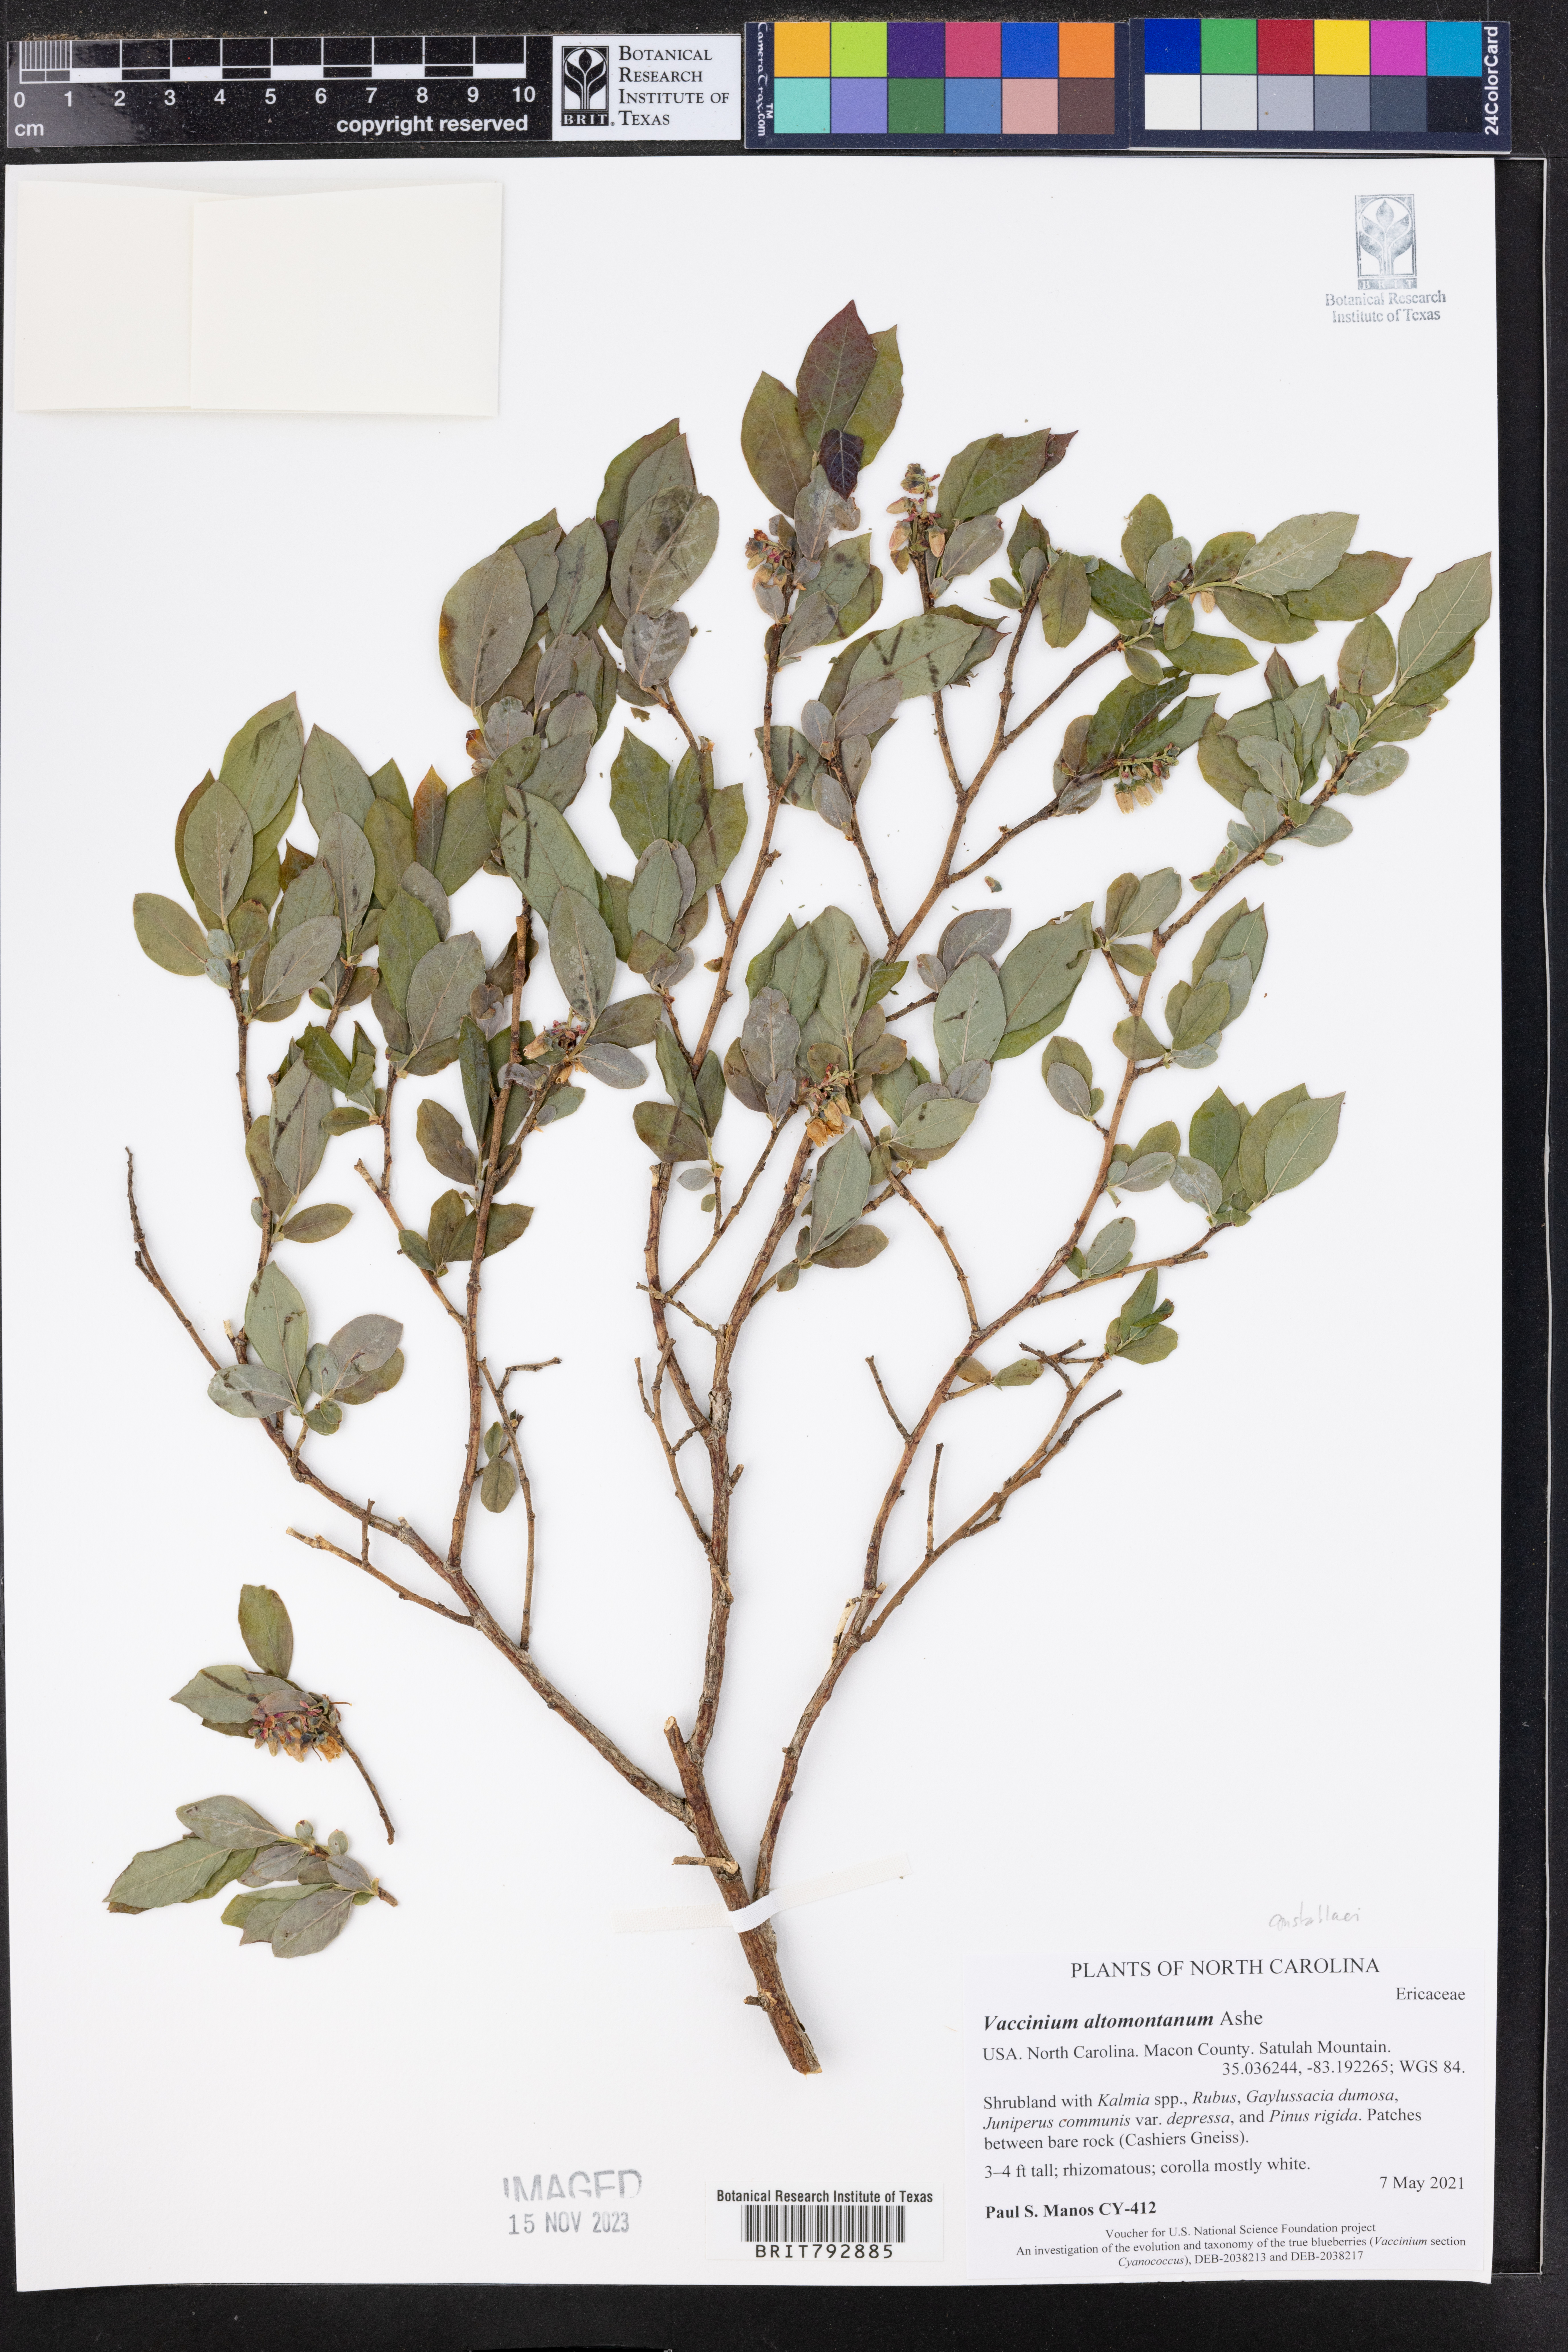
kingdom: Plantae
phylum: Tracheophyta
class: Magnoliopsida
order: Ericales
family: Ericaceae
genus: Vaccinium
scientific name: Vaccinium pallidum
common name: Blue ridge blueberry
